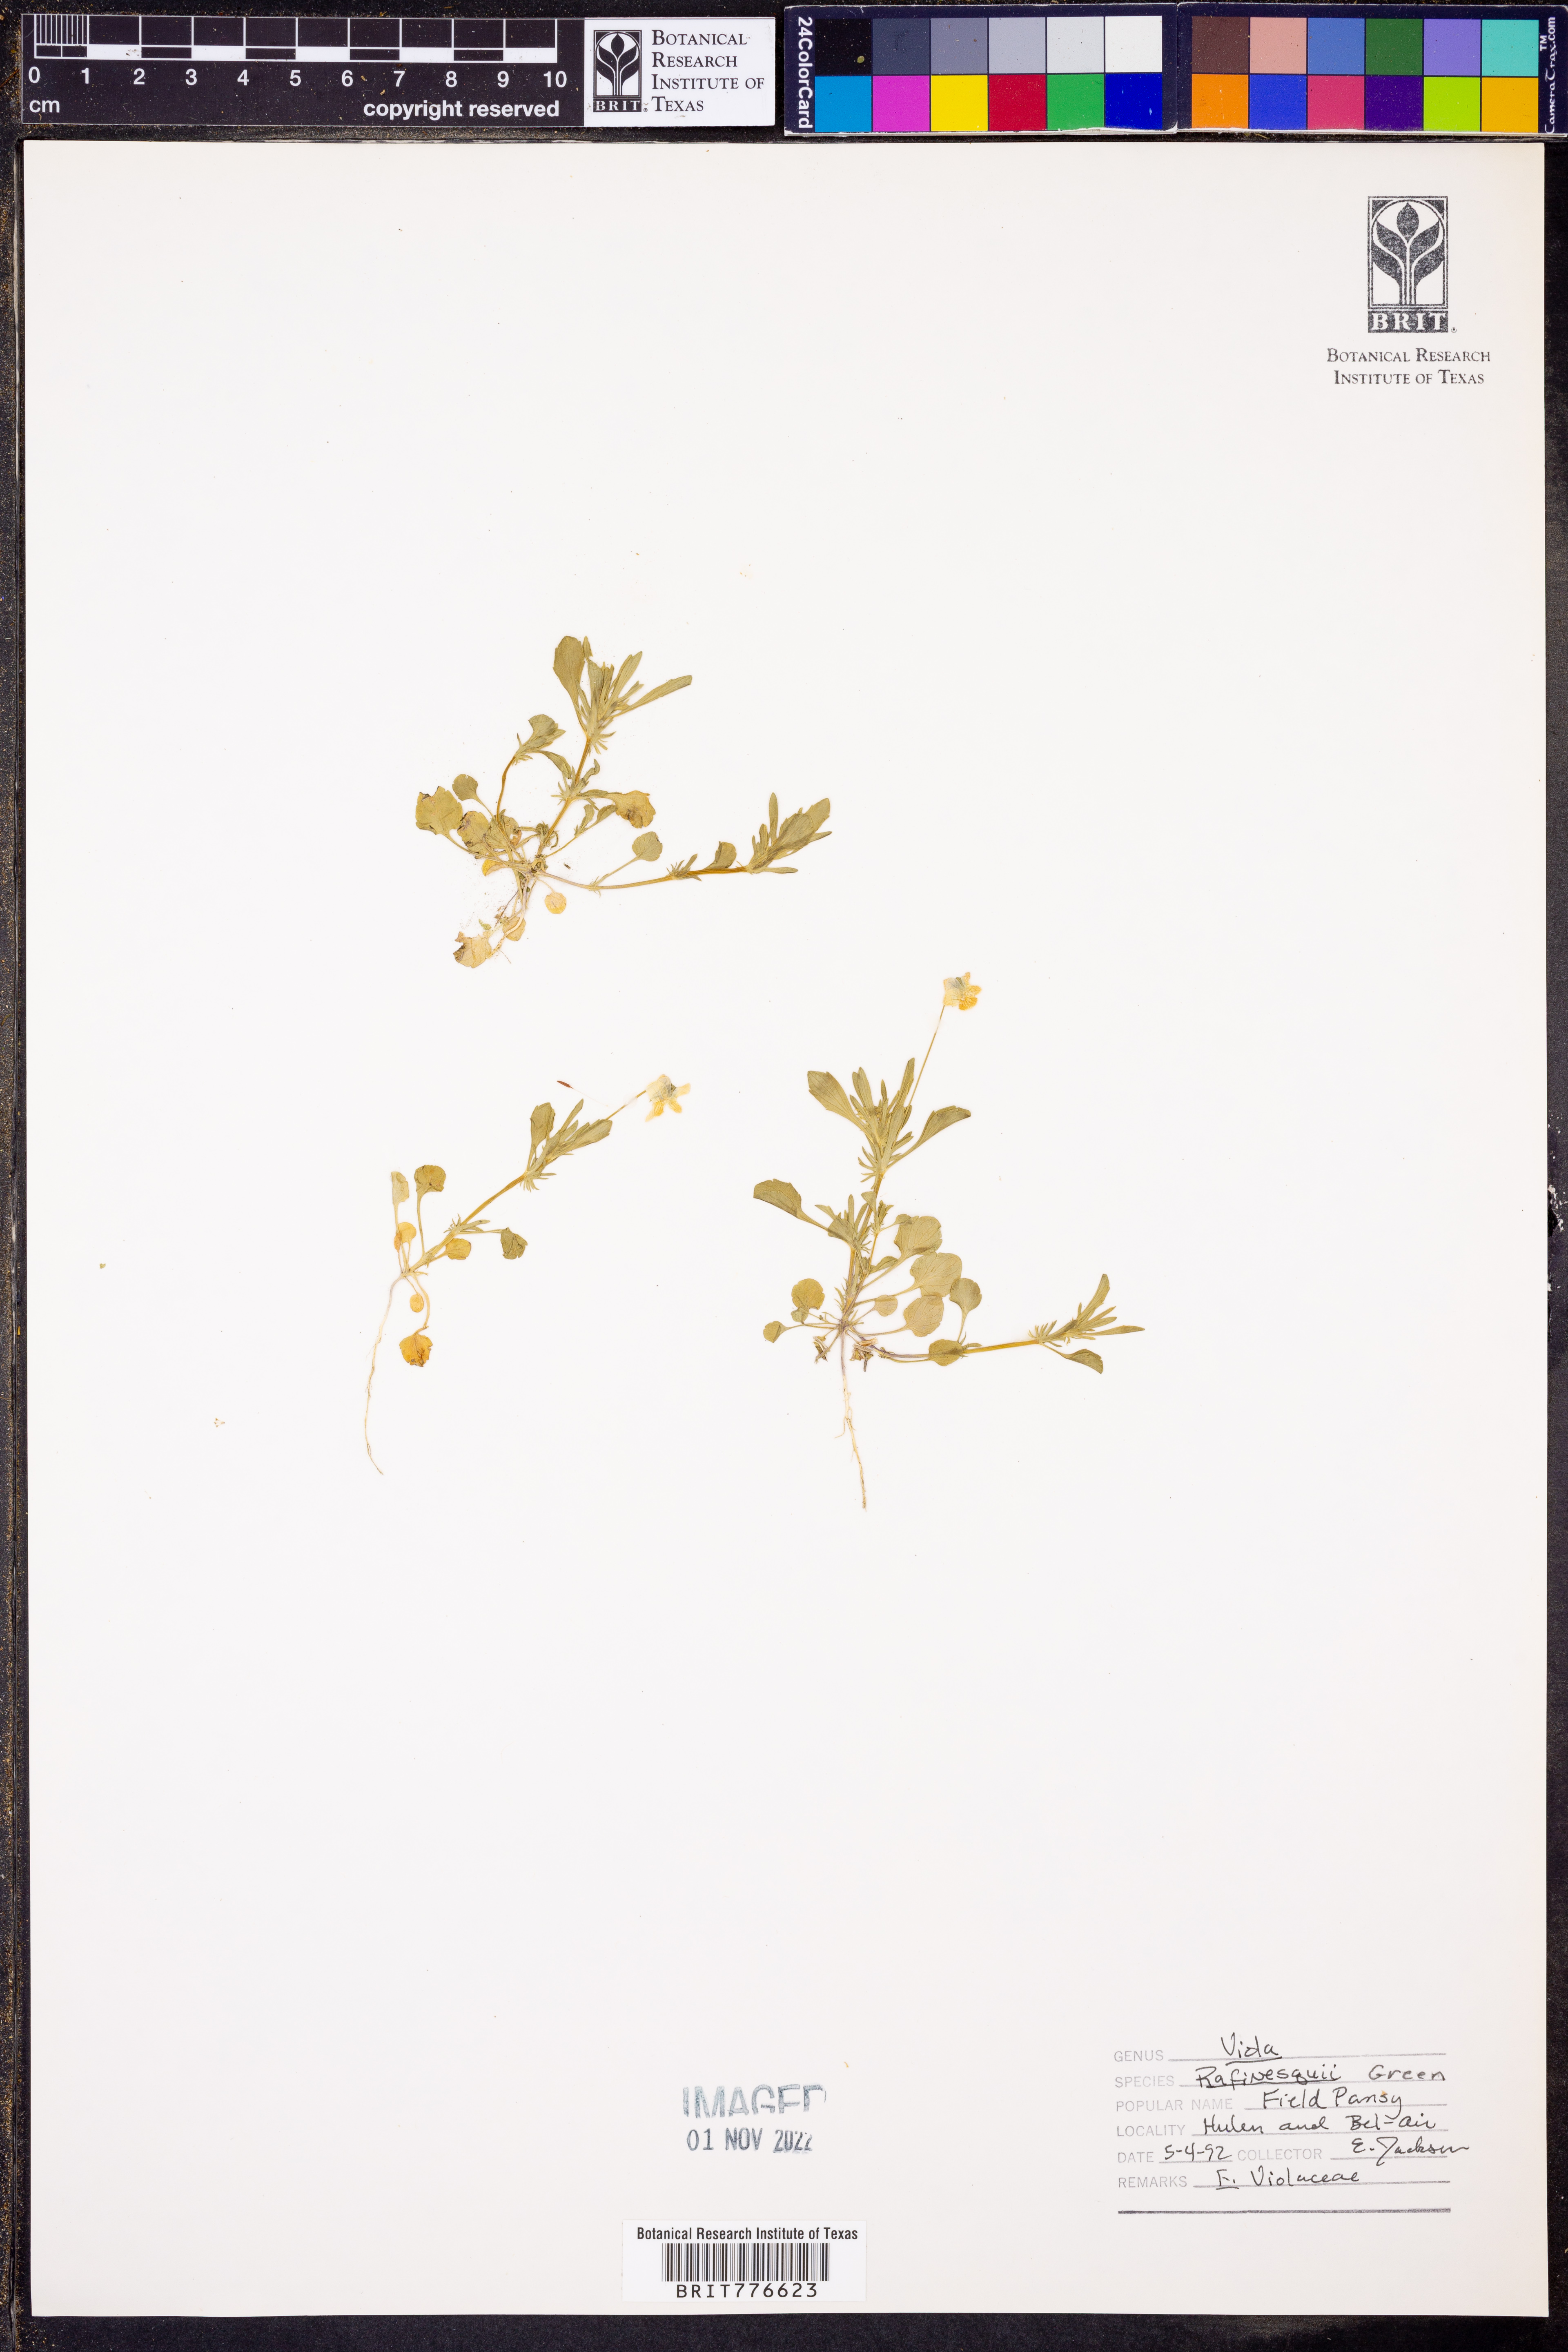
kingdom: Plantae
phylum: Tracheophyta
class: Magnoliopsida
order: Malpighiales
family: Violaceae
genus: Viola
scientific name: Viola rafinesquei
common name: American field pansy
